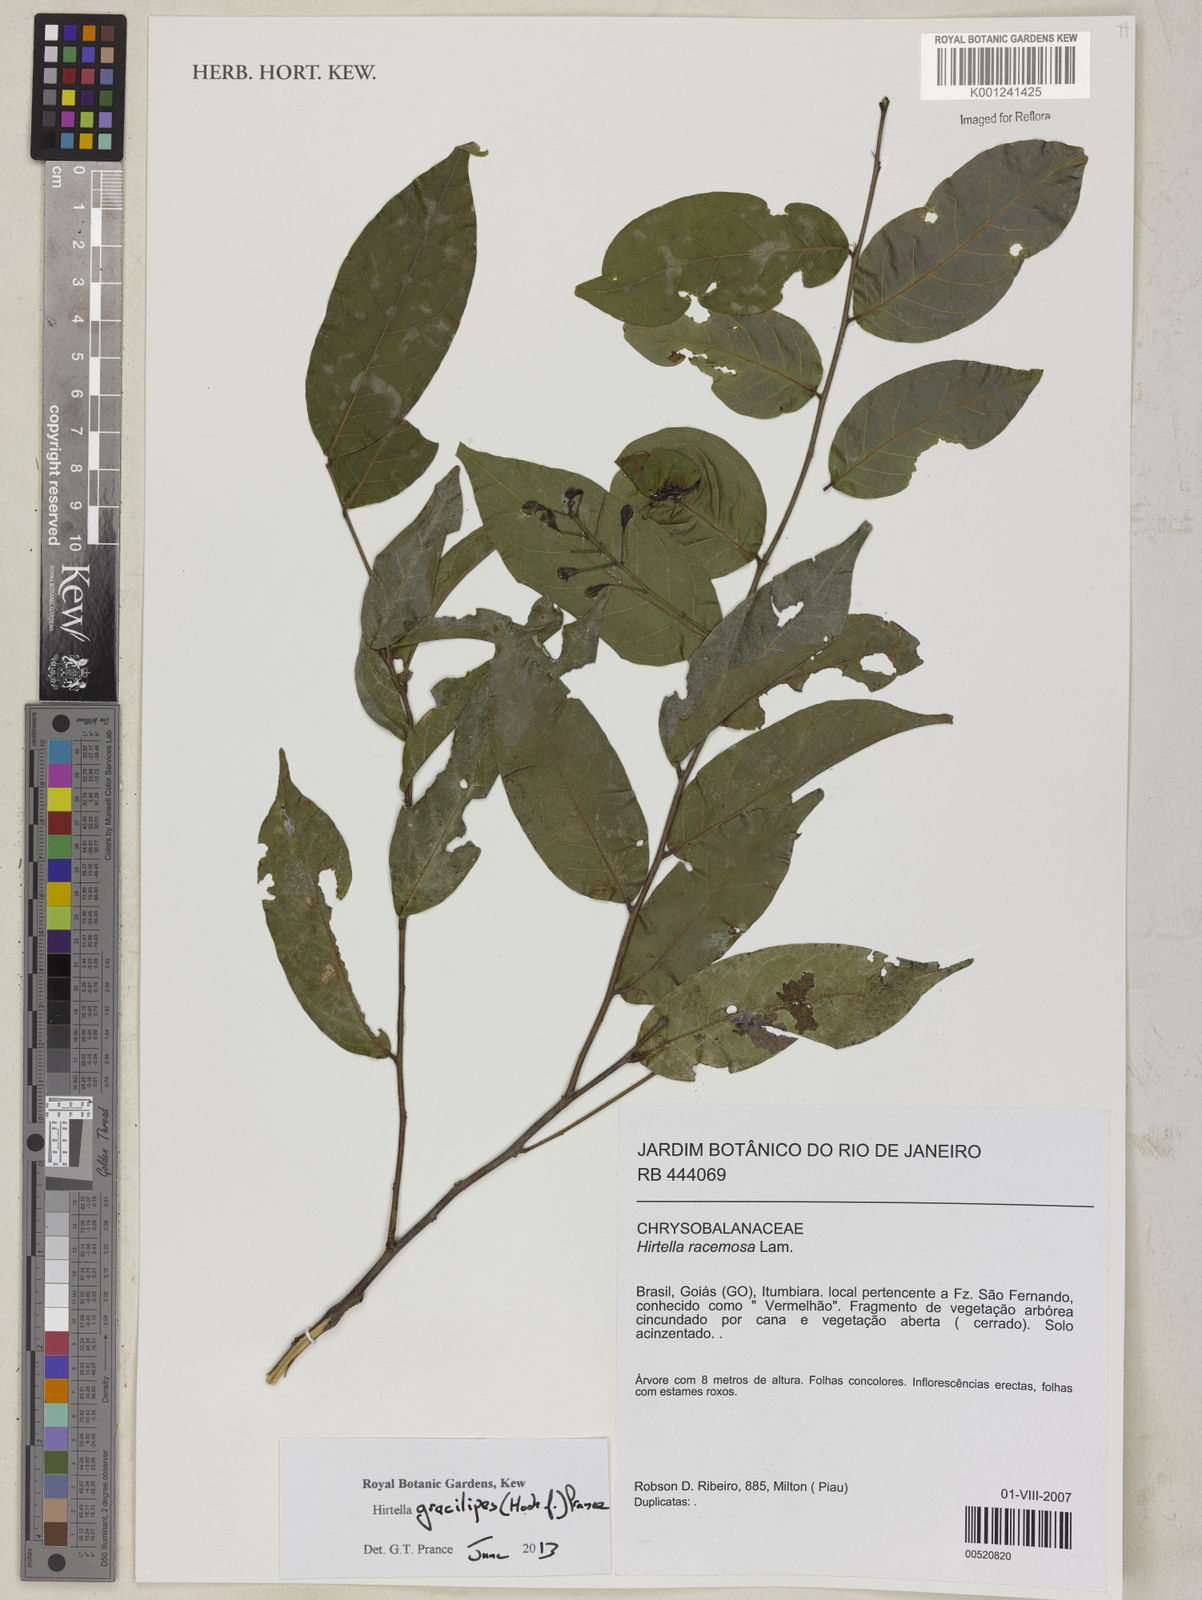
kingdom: Plantae
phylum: Tracheophyta
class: Magnoliopsida
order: Malpighiales
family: Chrysobalanaceae
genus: Hirtella
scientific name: Hirtella gracilipes
